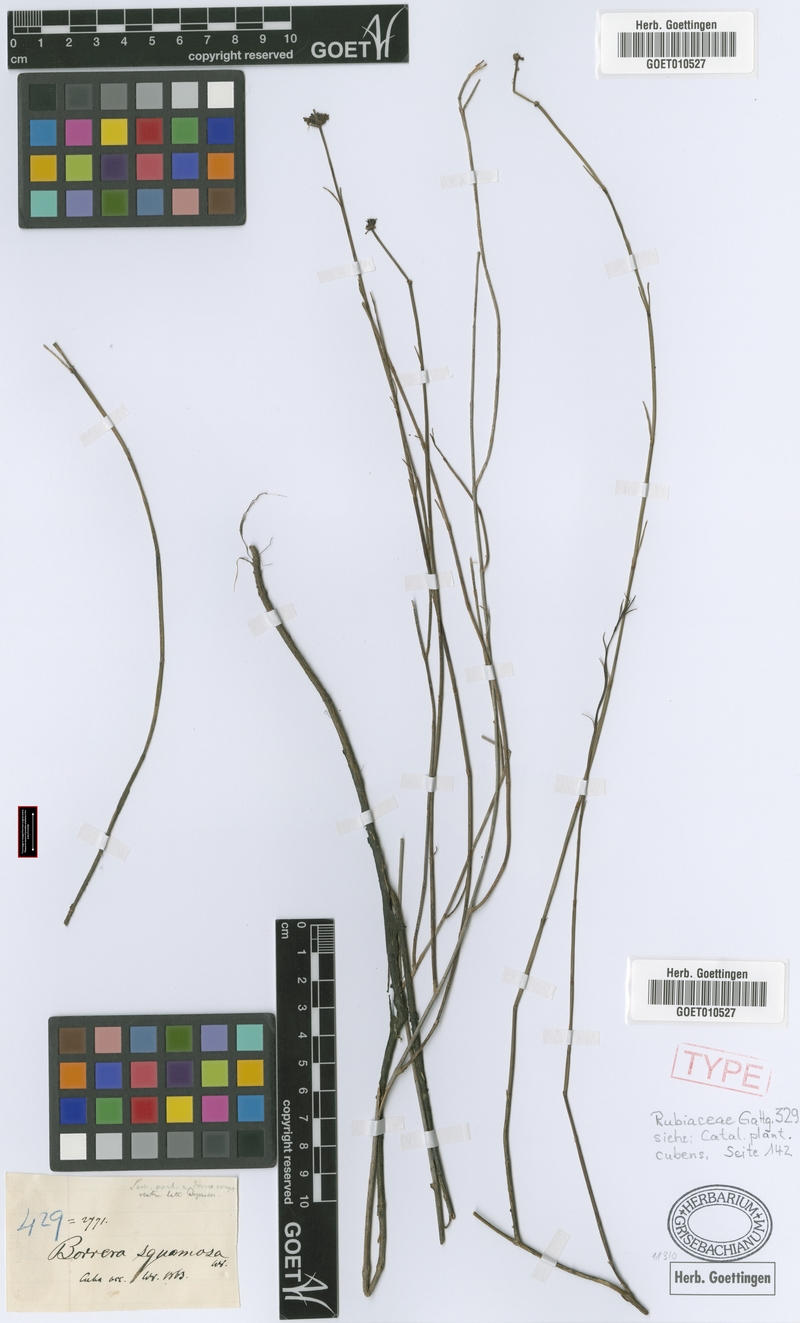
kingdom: Plantae
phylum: Tracheophyta
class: Magnoliopsida
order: Gentianales
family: Rubiaceae
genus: Spermacoce
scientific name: Spermacoce squamosa
